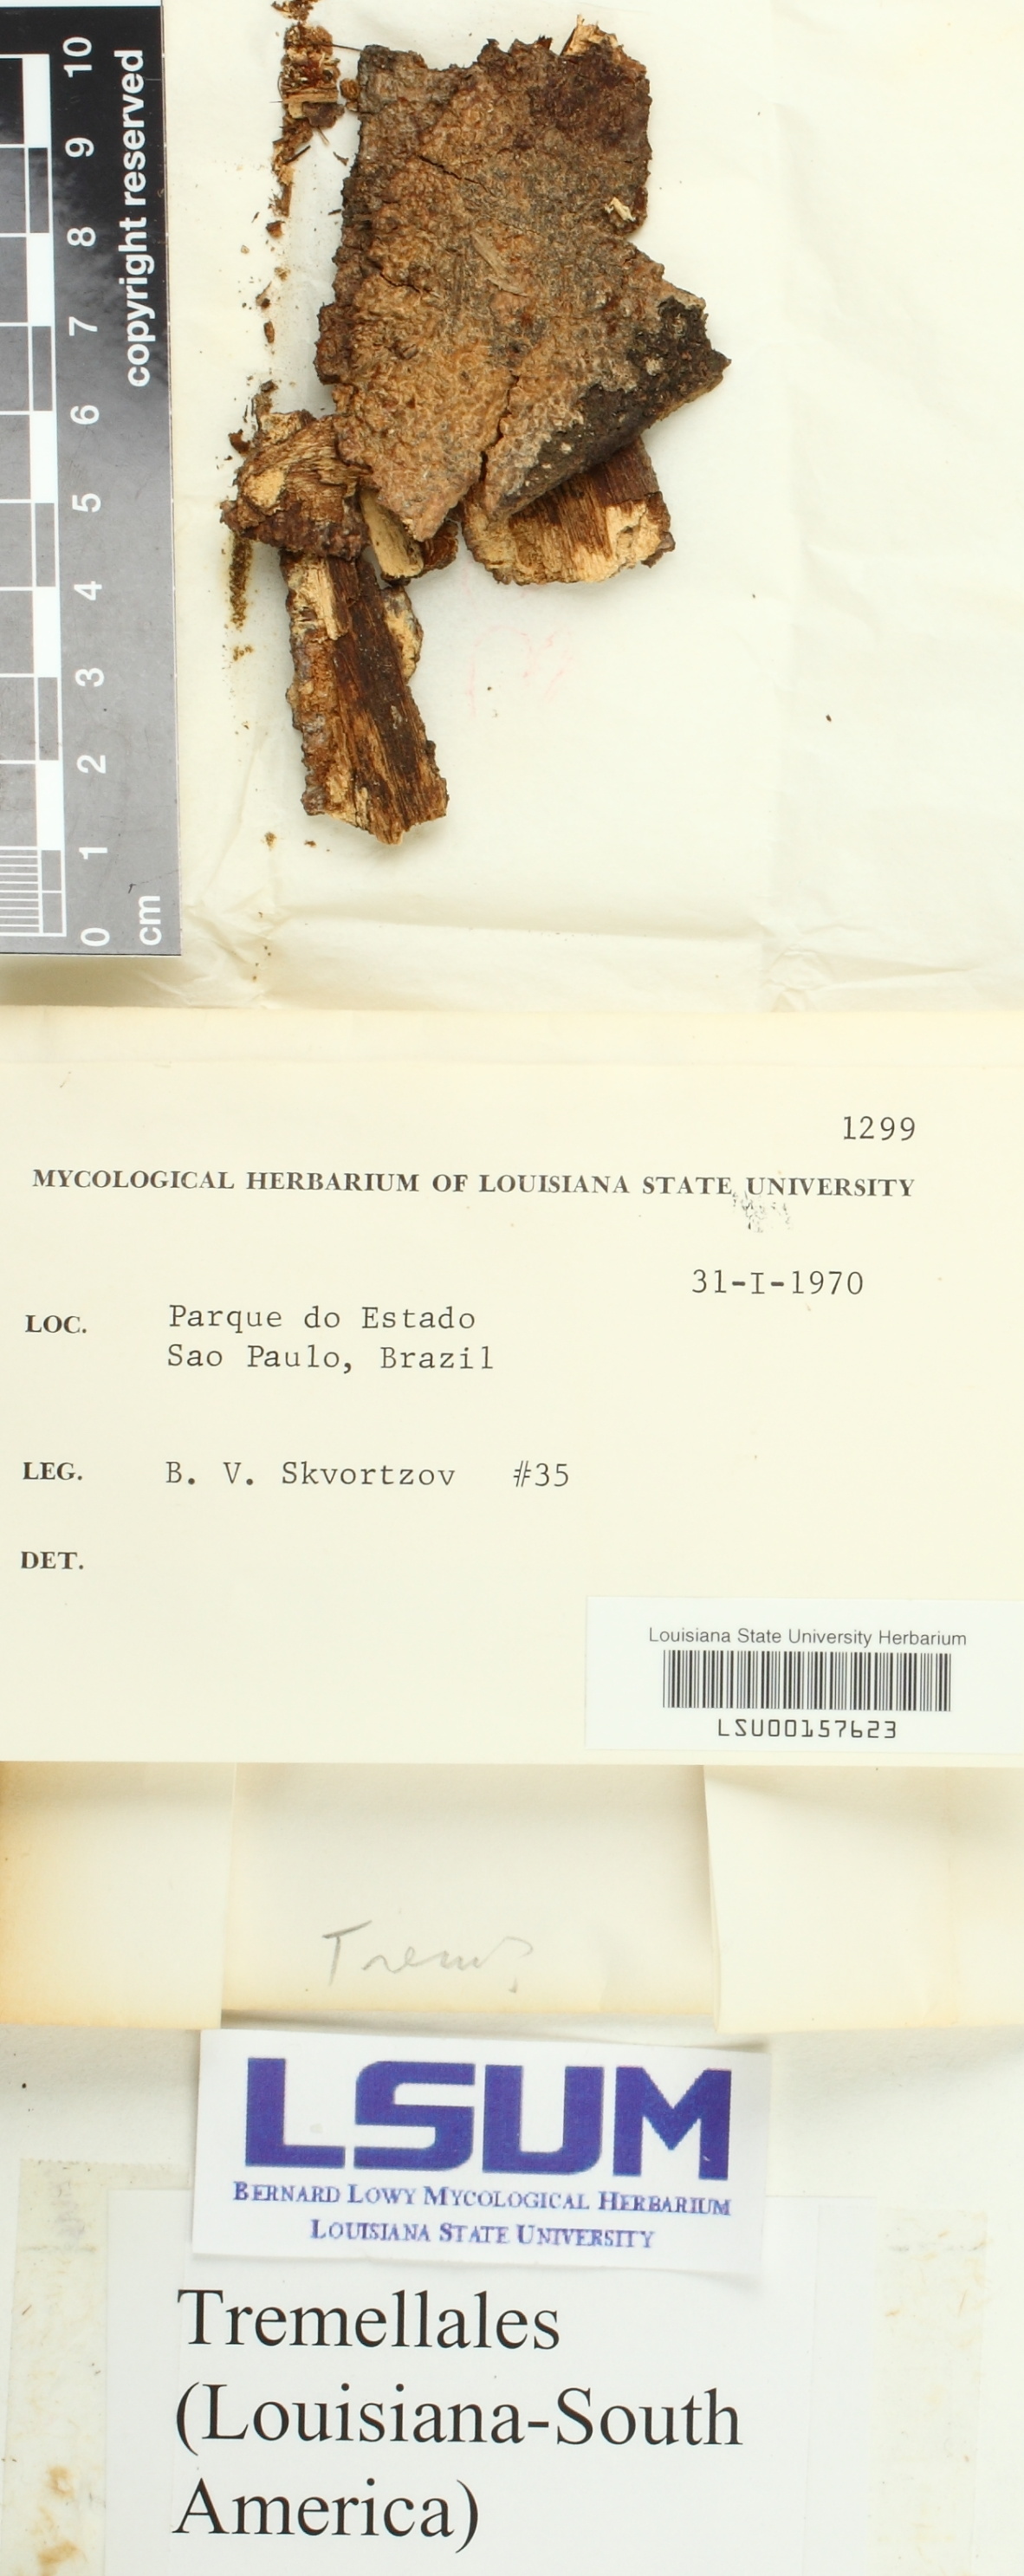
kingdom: Fungi
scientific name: Fungi
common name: Fungi
